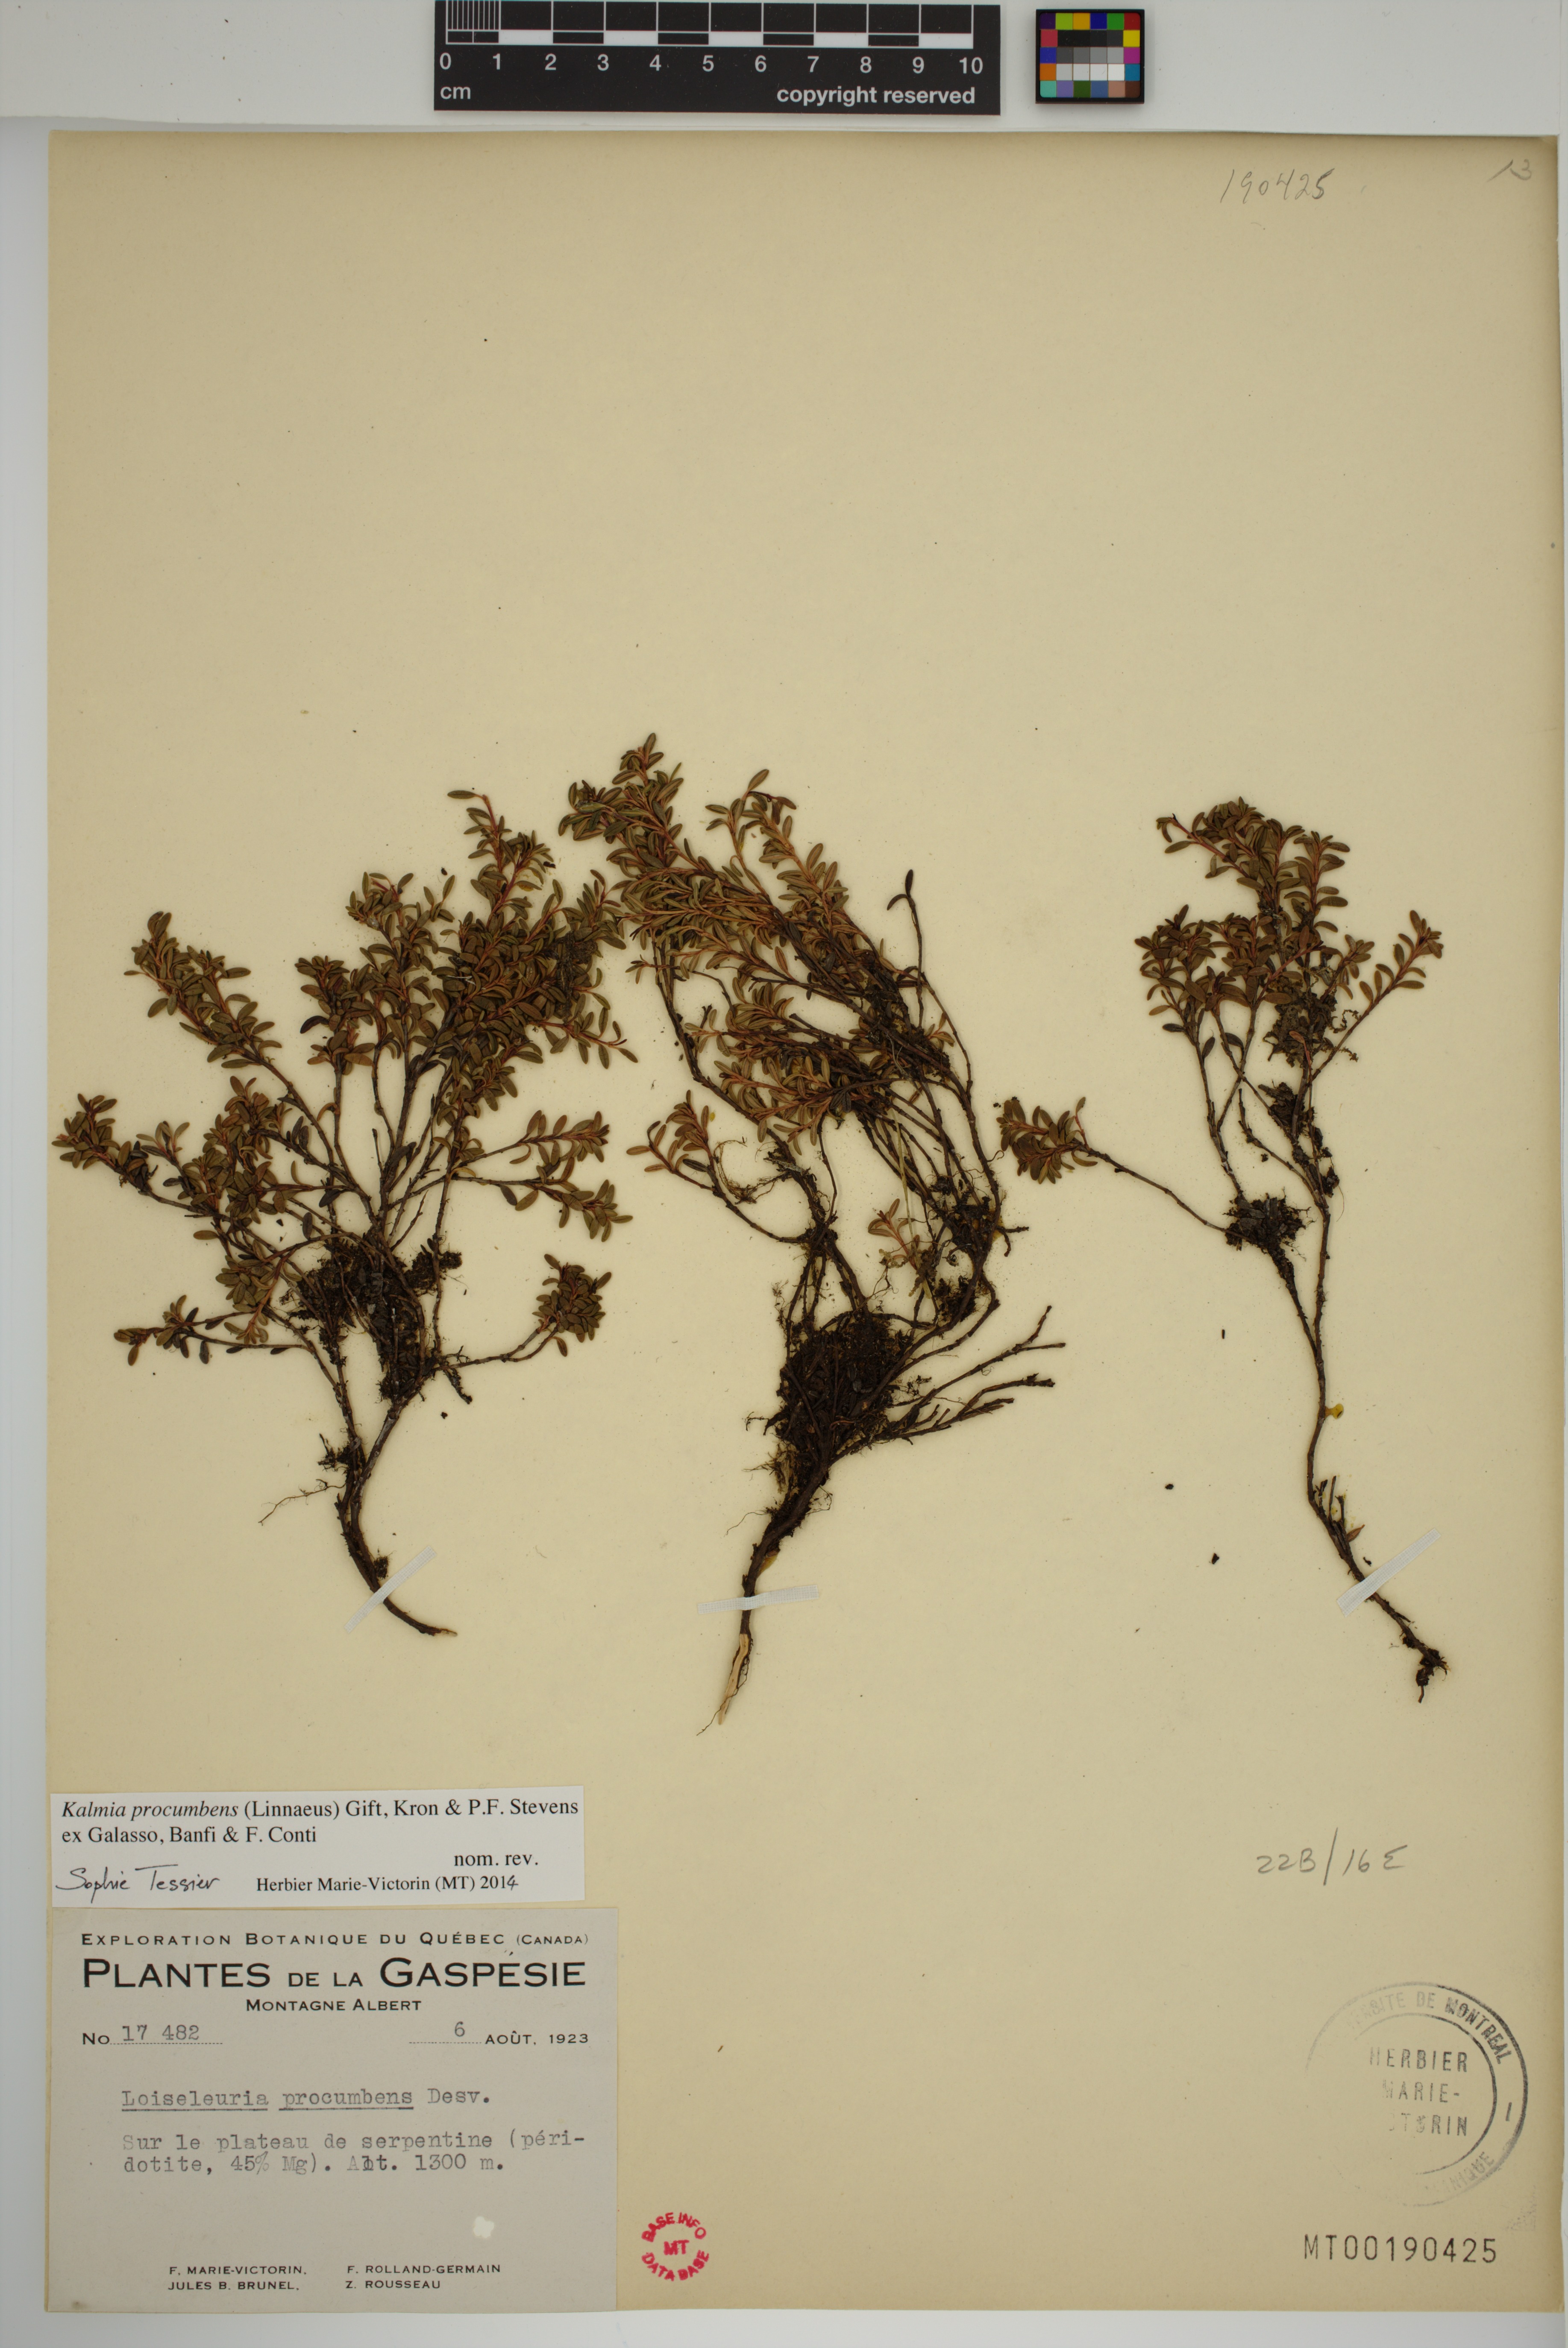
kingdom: Plantae
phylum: Tracheophyta
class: Magnoliopsida
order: Ericales
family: Ericaceae
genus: Kalmia
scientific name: Kalmia procumbens
